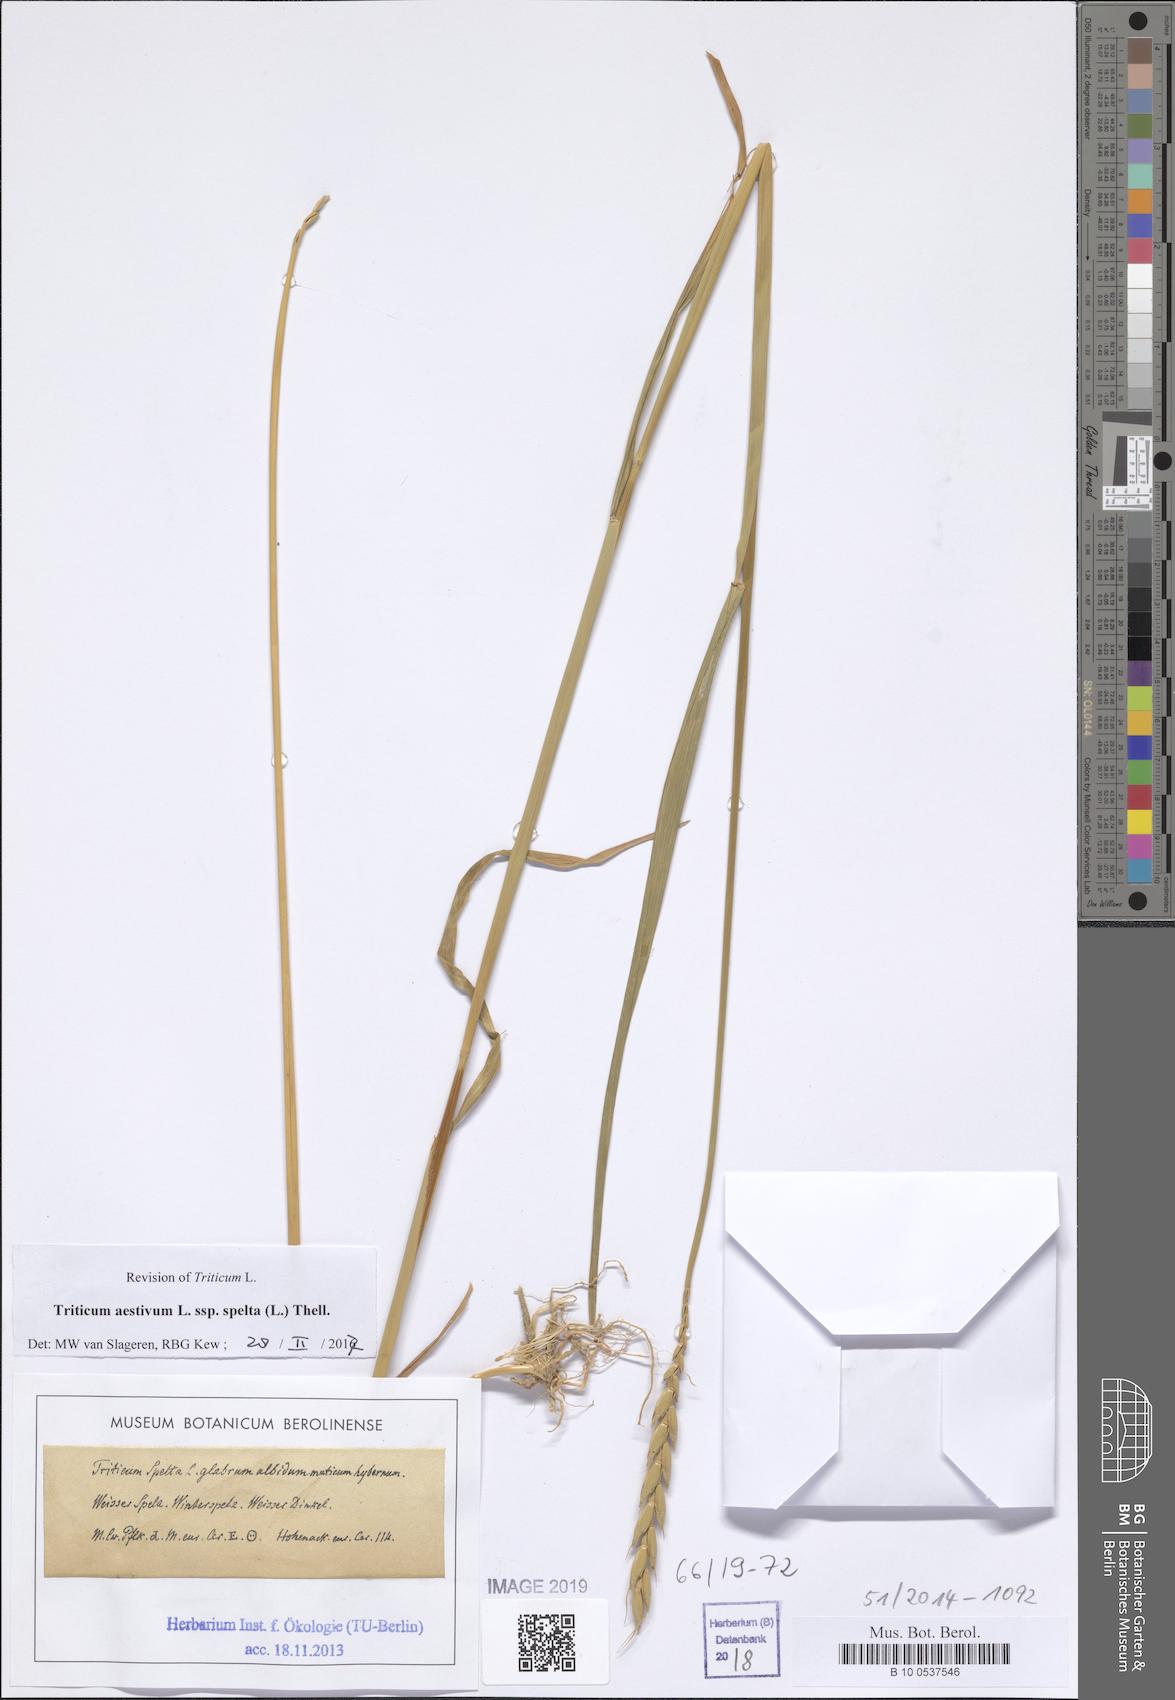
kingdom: Plantae
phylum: Tracheophyta
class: Liliopsida
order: Poales
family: Poaceae
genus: Triticum
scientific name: Triticum aestivum
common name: Common wheat
